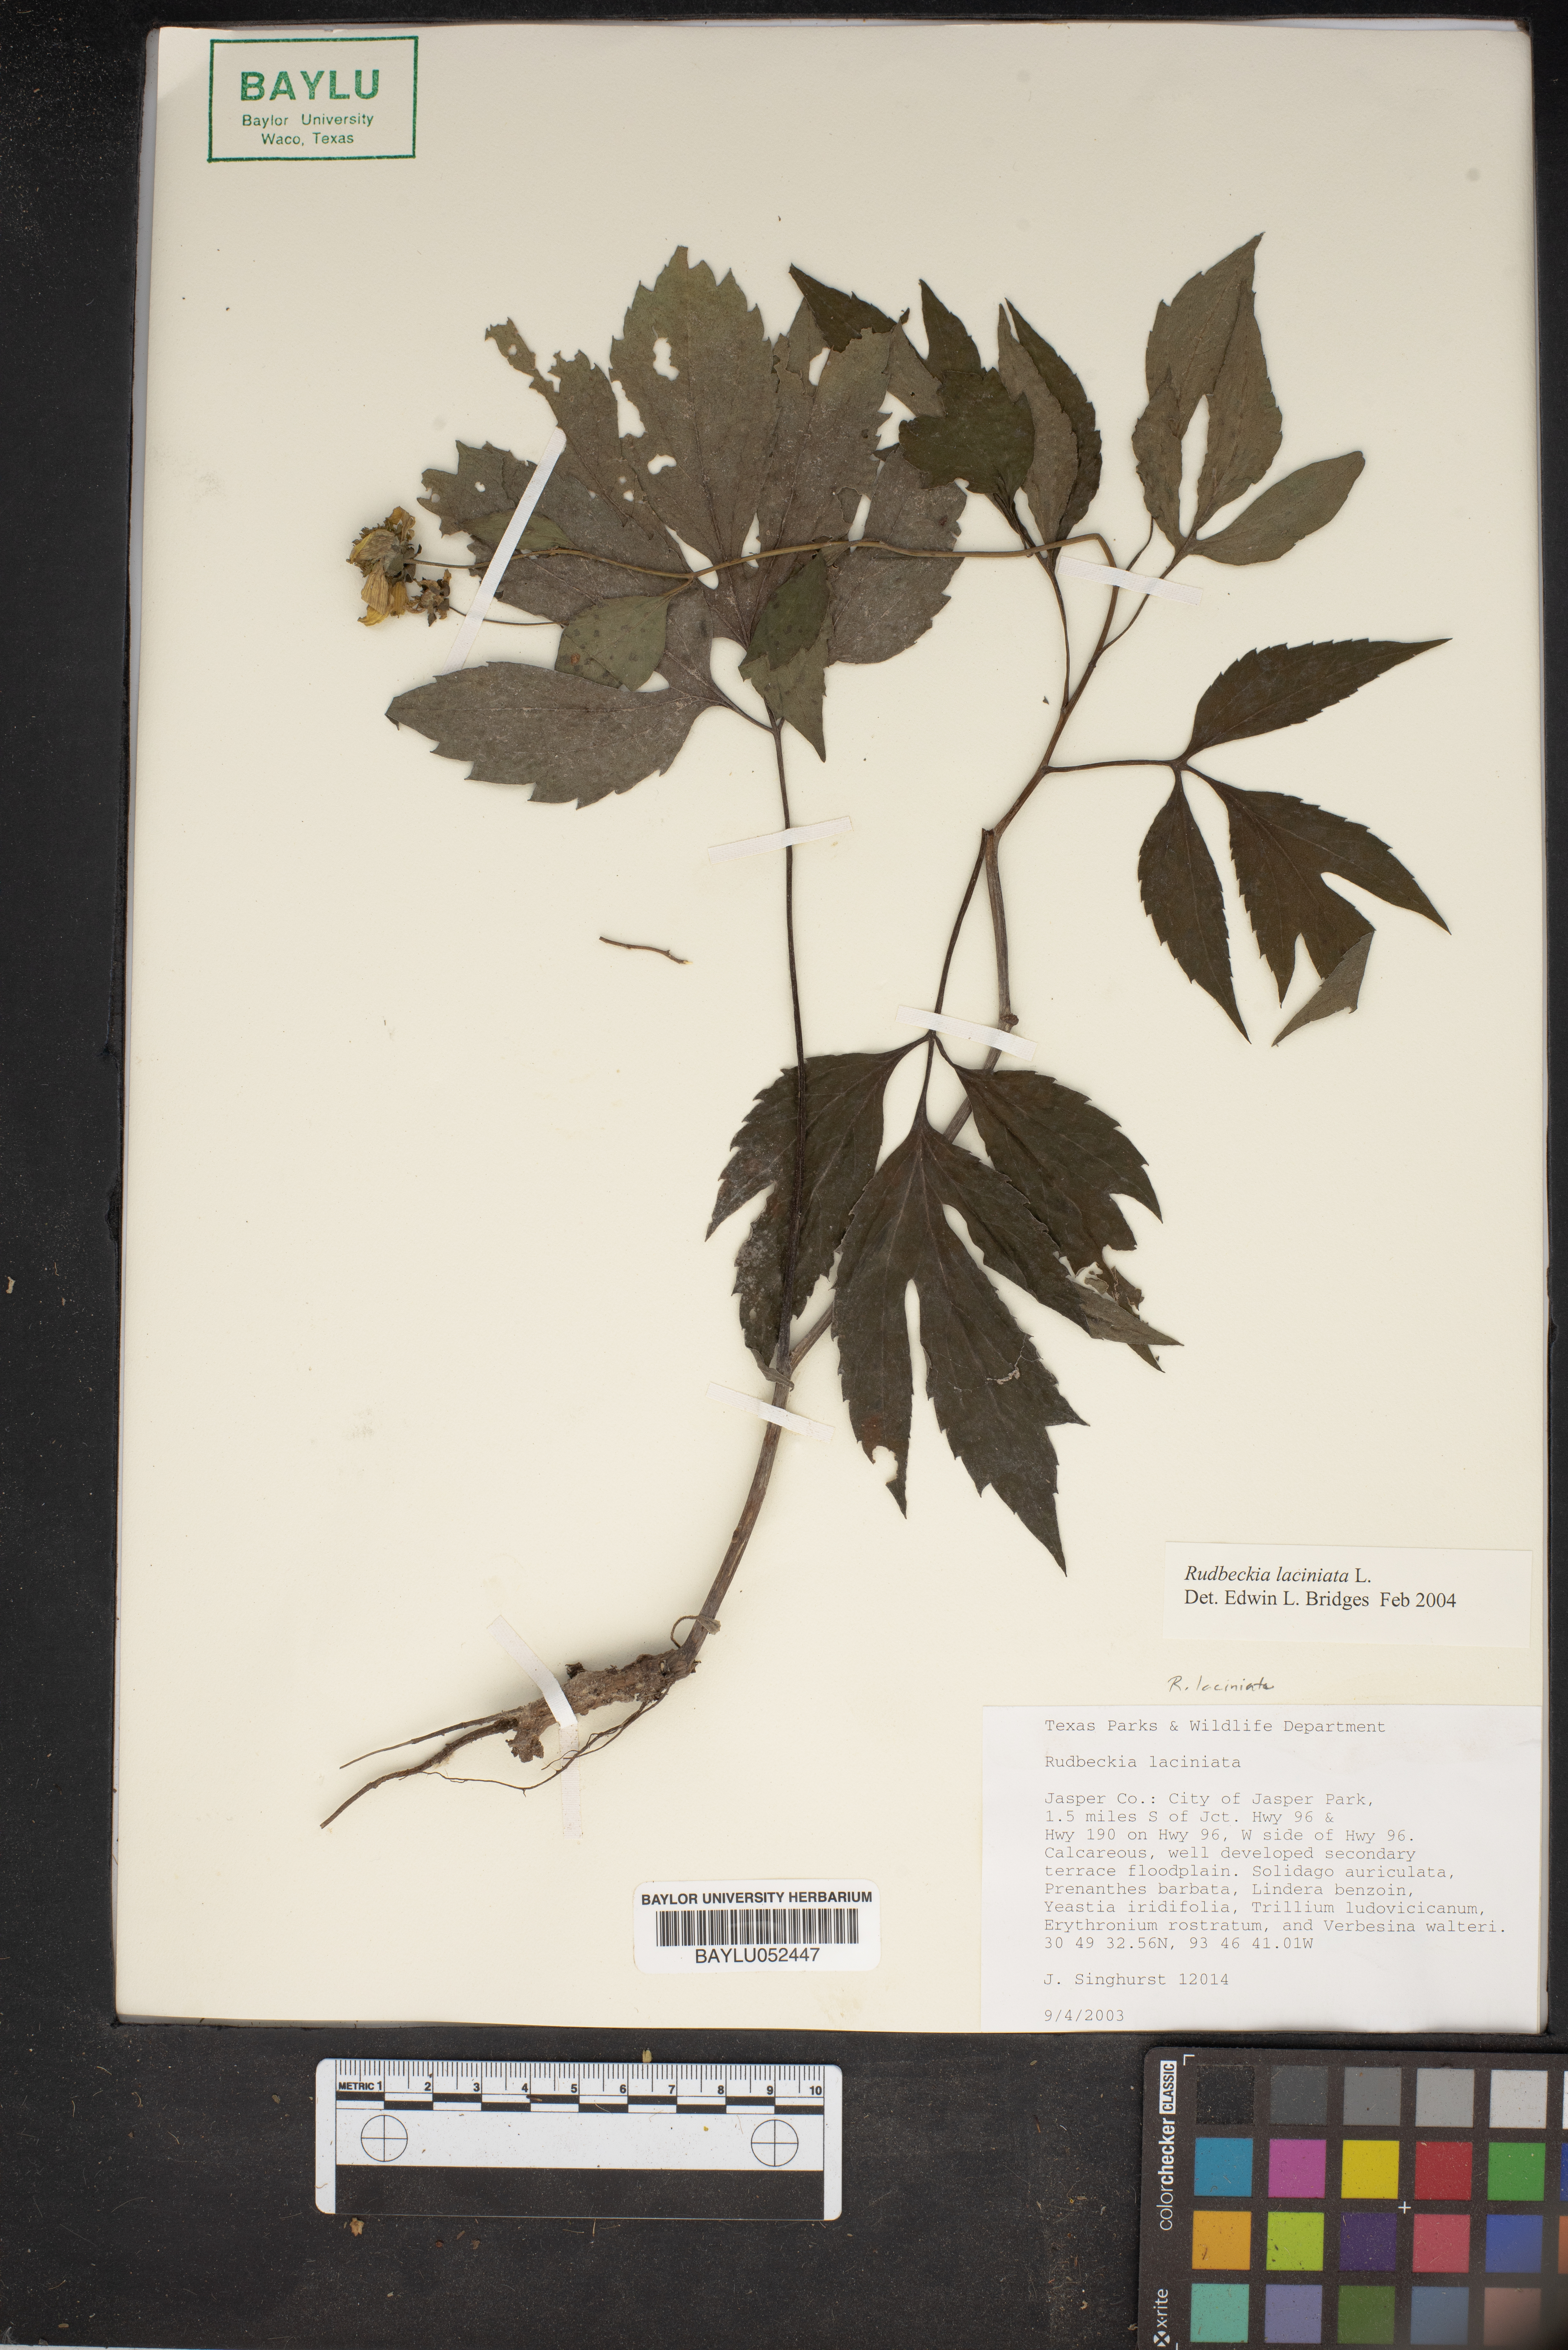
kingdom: Plantae
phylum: Tracheophyta
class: Magnoliopsida
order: Asterales
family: Asteraceae
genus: Rudbeckia
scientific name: Rudbeckia laciniata
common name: Coneflower
